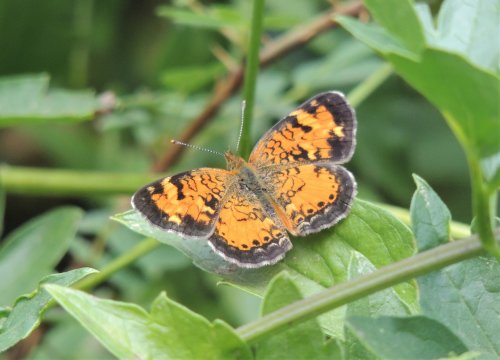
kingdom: Animalia
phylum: Arthropoda
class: Insecta
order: Lepidoptera
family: Nymphalidae
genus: Phyciodes
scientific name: Phyciodes tharos
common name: Northern Crescent
